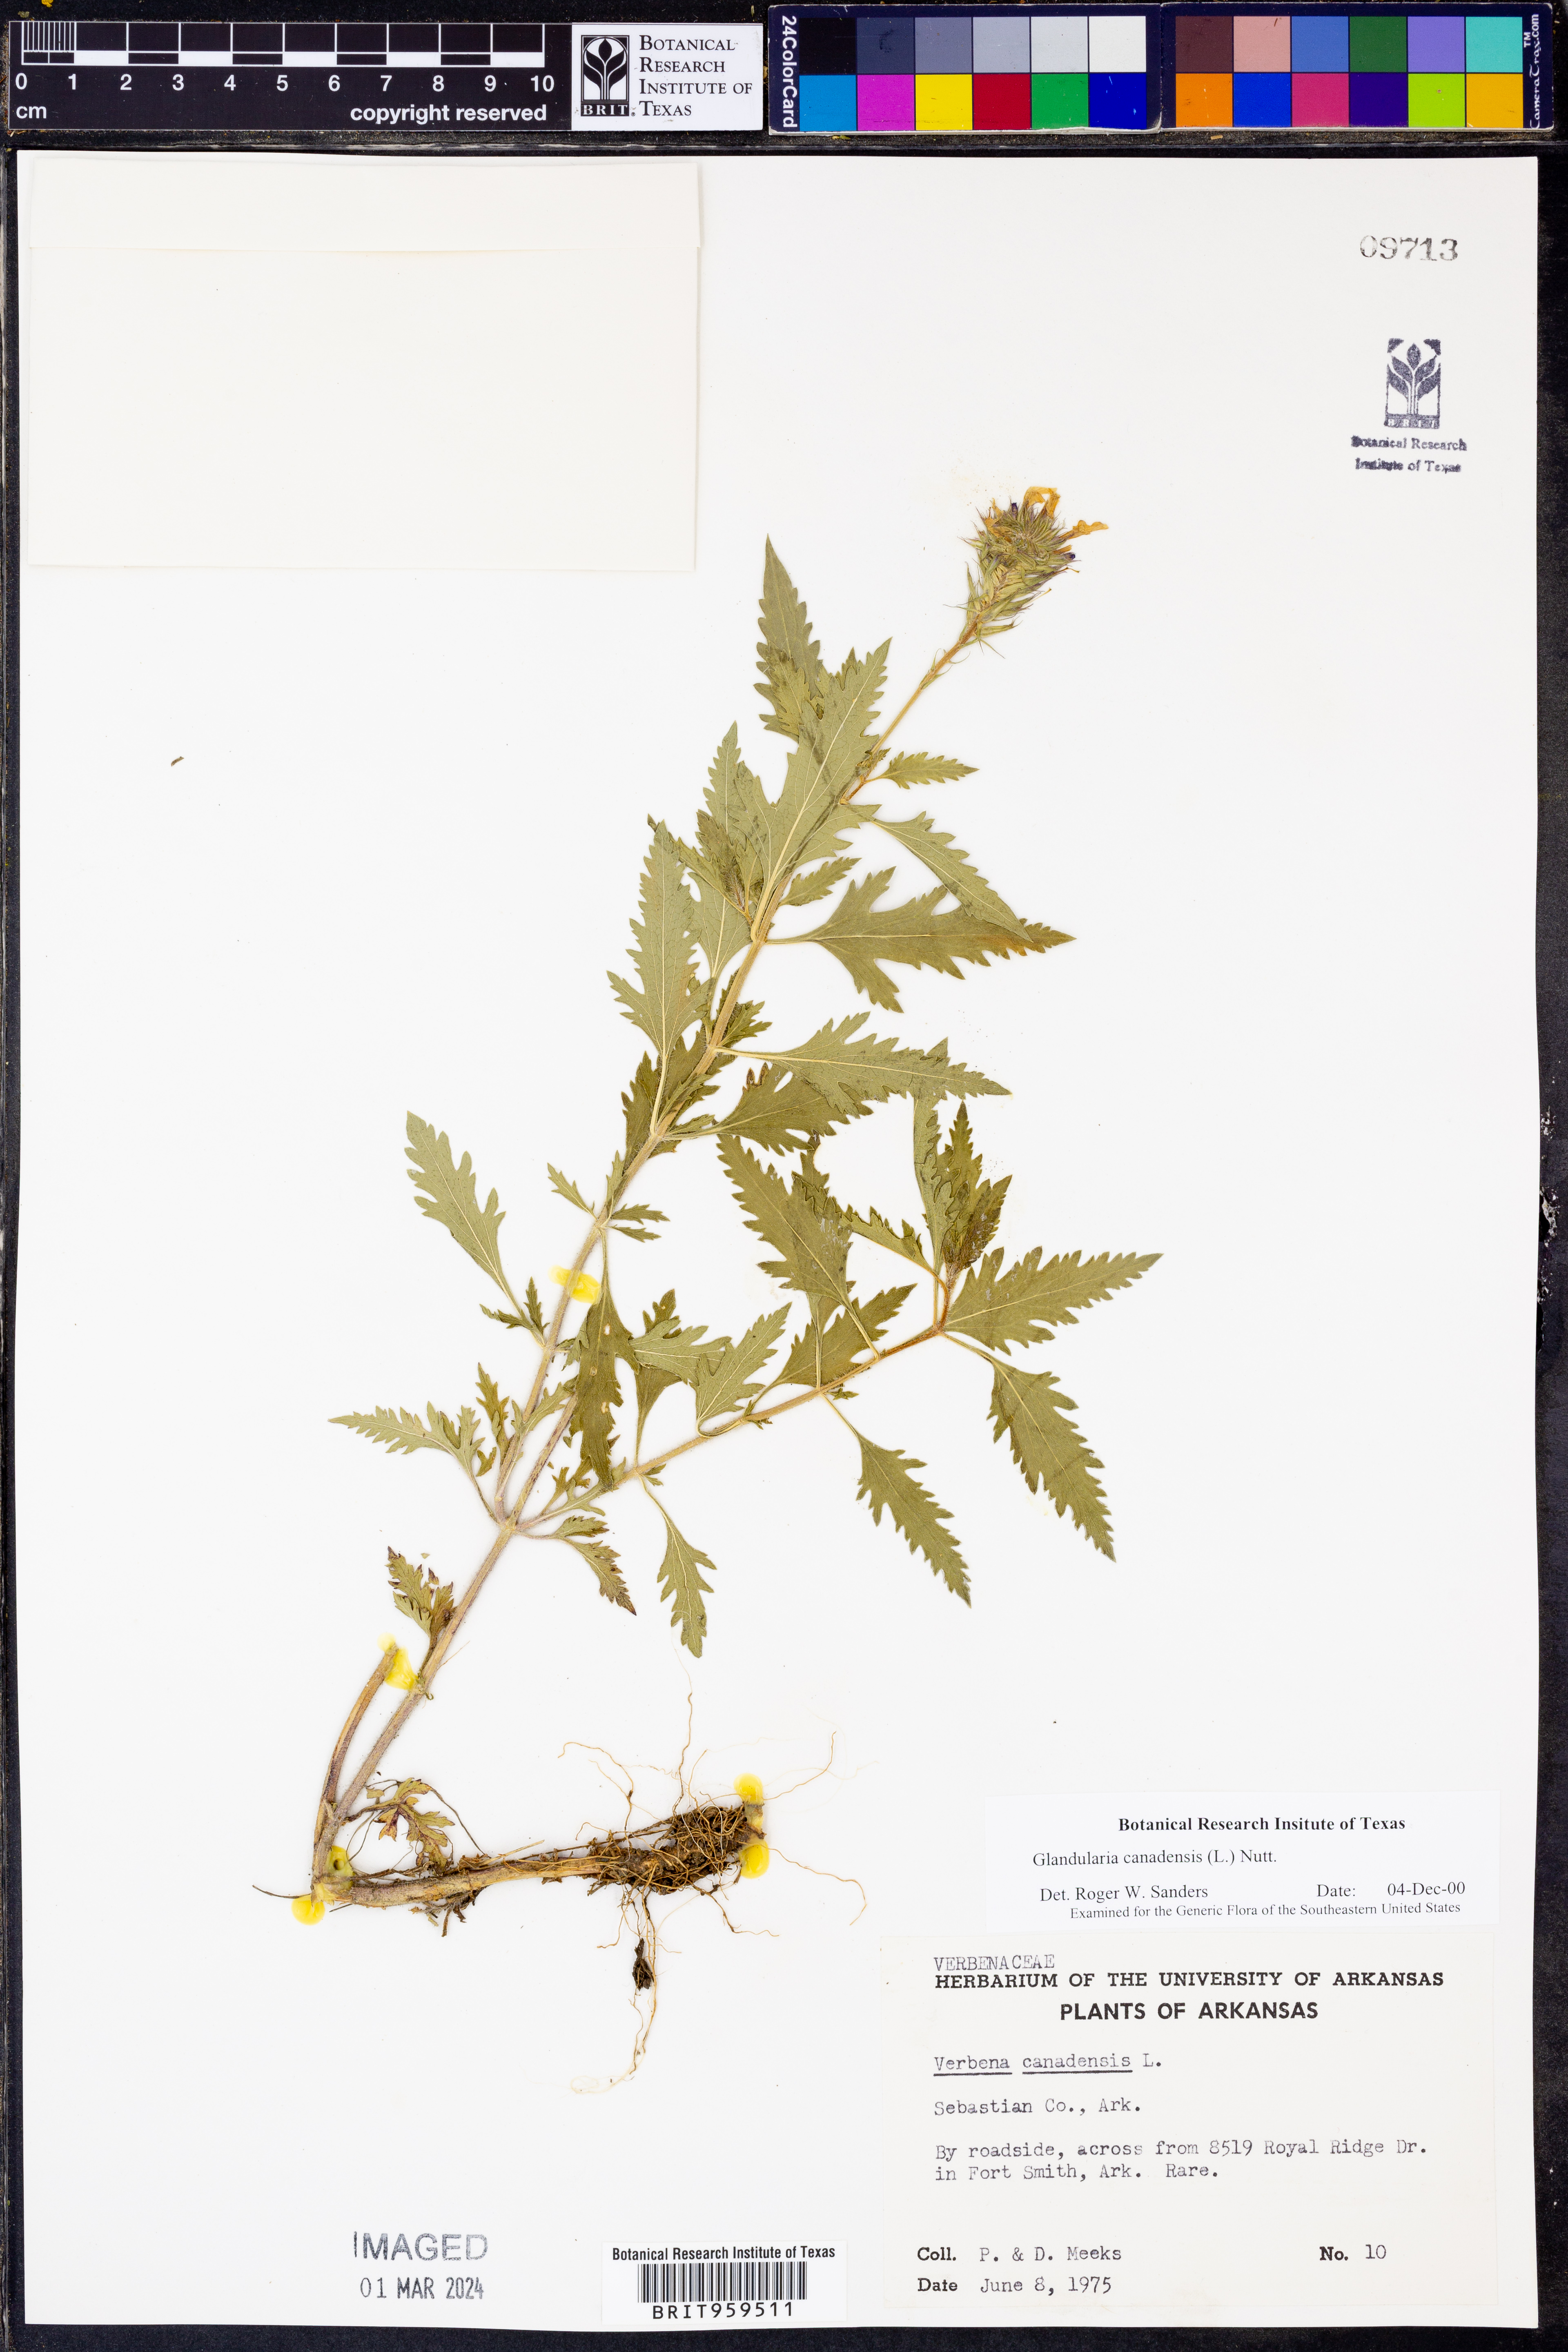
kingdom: Plantae
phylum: Tracheophyta
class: Magnoliopsida
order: Lamiales
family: Verbenaceae
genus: Verbena
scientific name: Verbena canadensis
